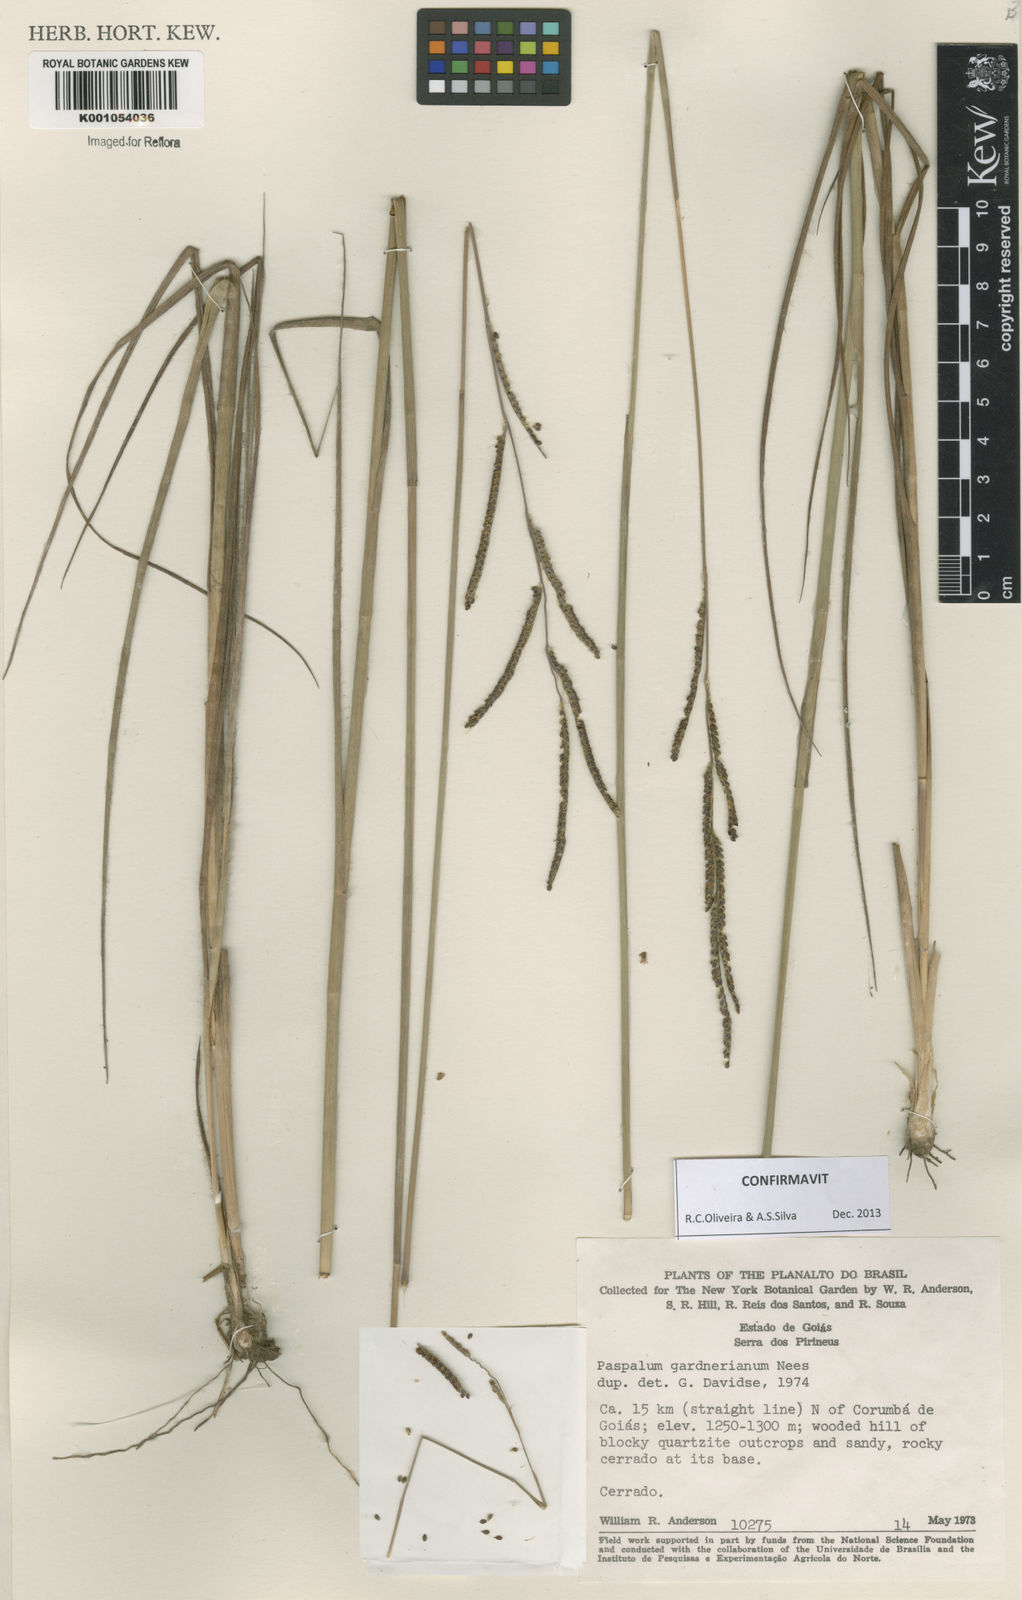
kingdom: Plantae
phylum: Tracheophyta
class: Liliopsida
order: Poales
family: Poaceae
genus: Paspalum
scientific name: Paspalum gardnerianum
